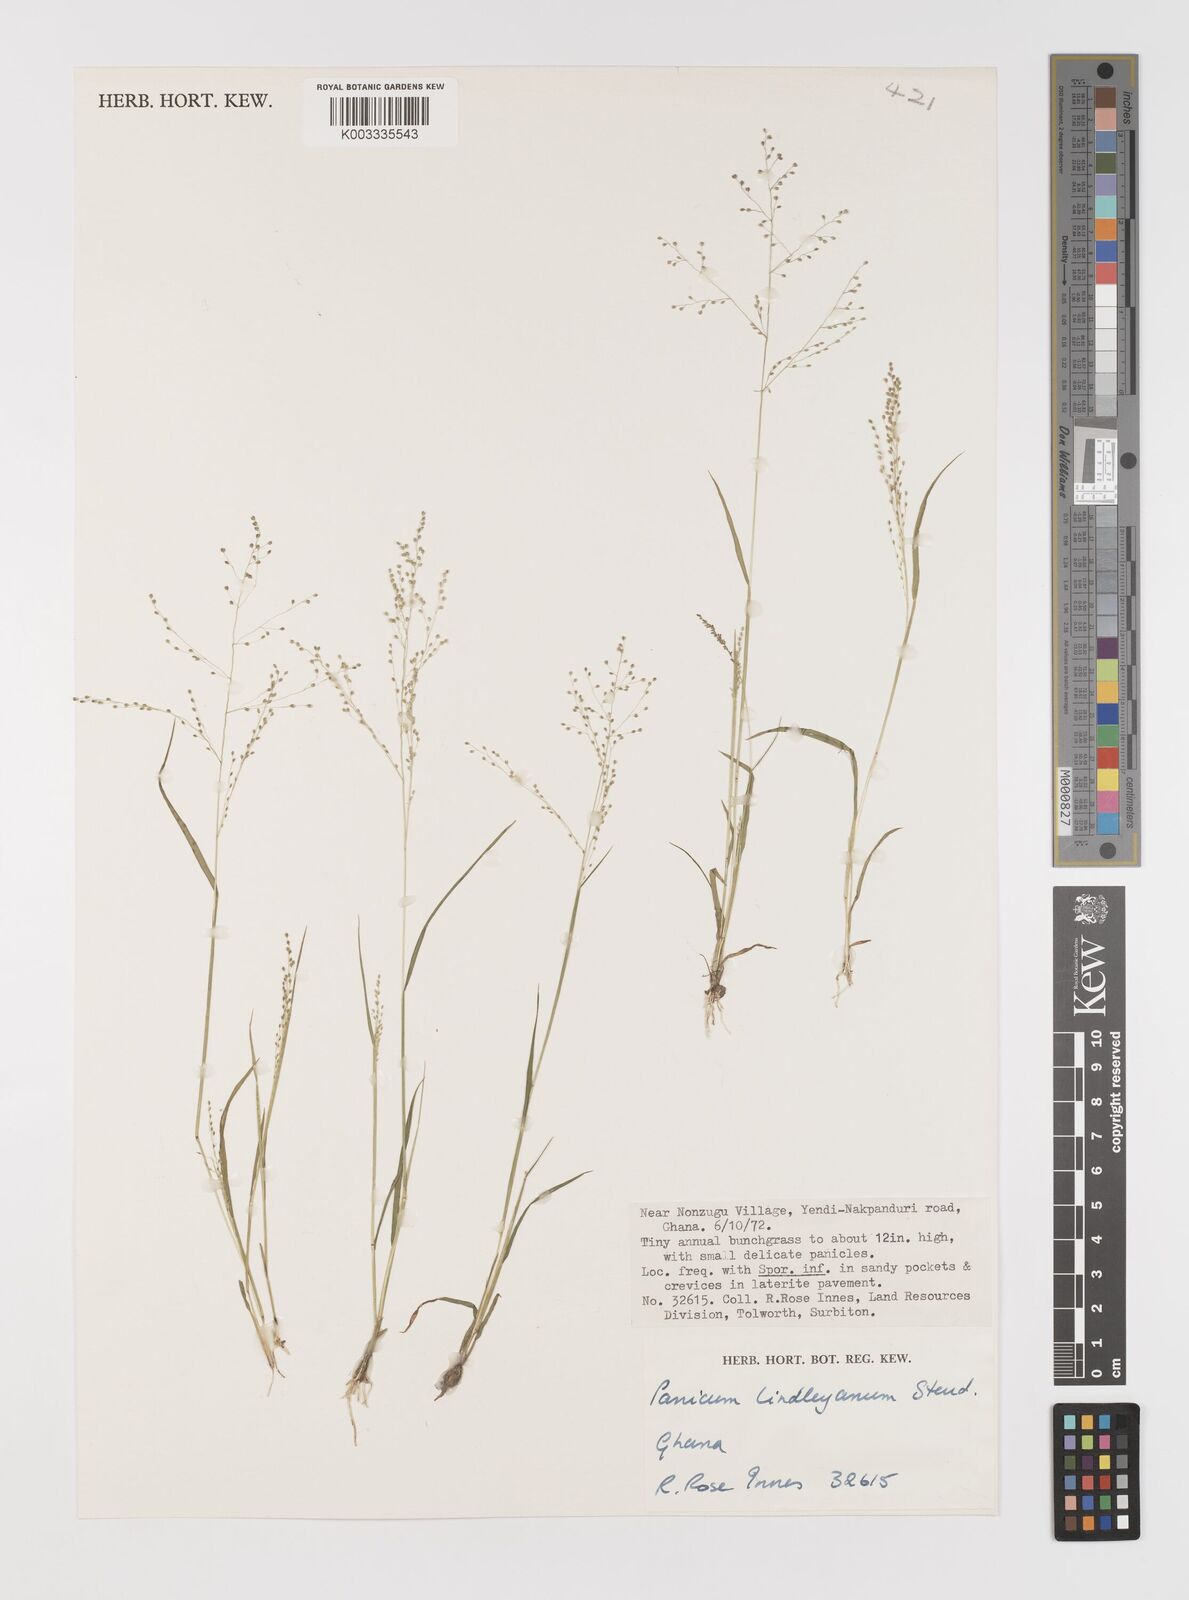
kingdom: Plantae
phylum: Tracheophyta
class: Liliopsida
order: Poales
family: Poaceae
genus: Trichanthecium
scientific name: Trichanthecium tenellum
